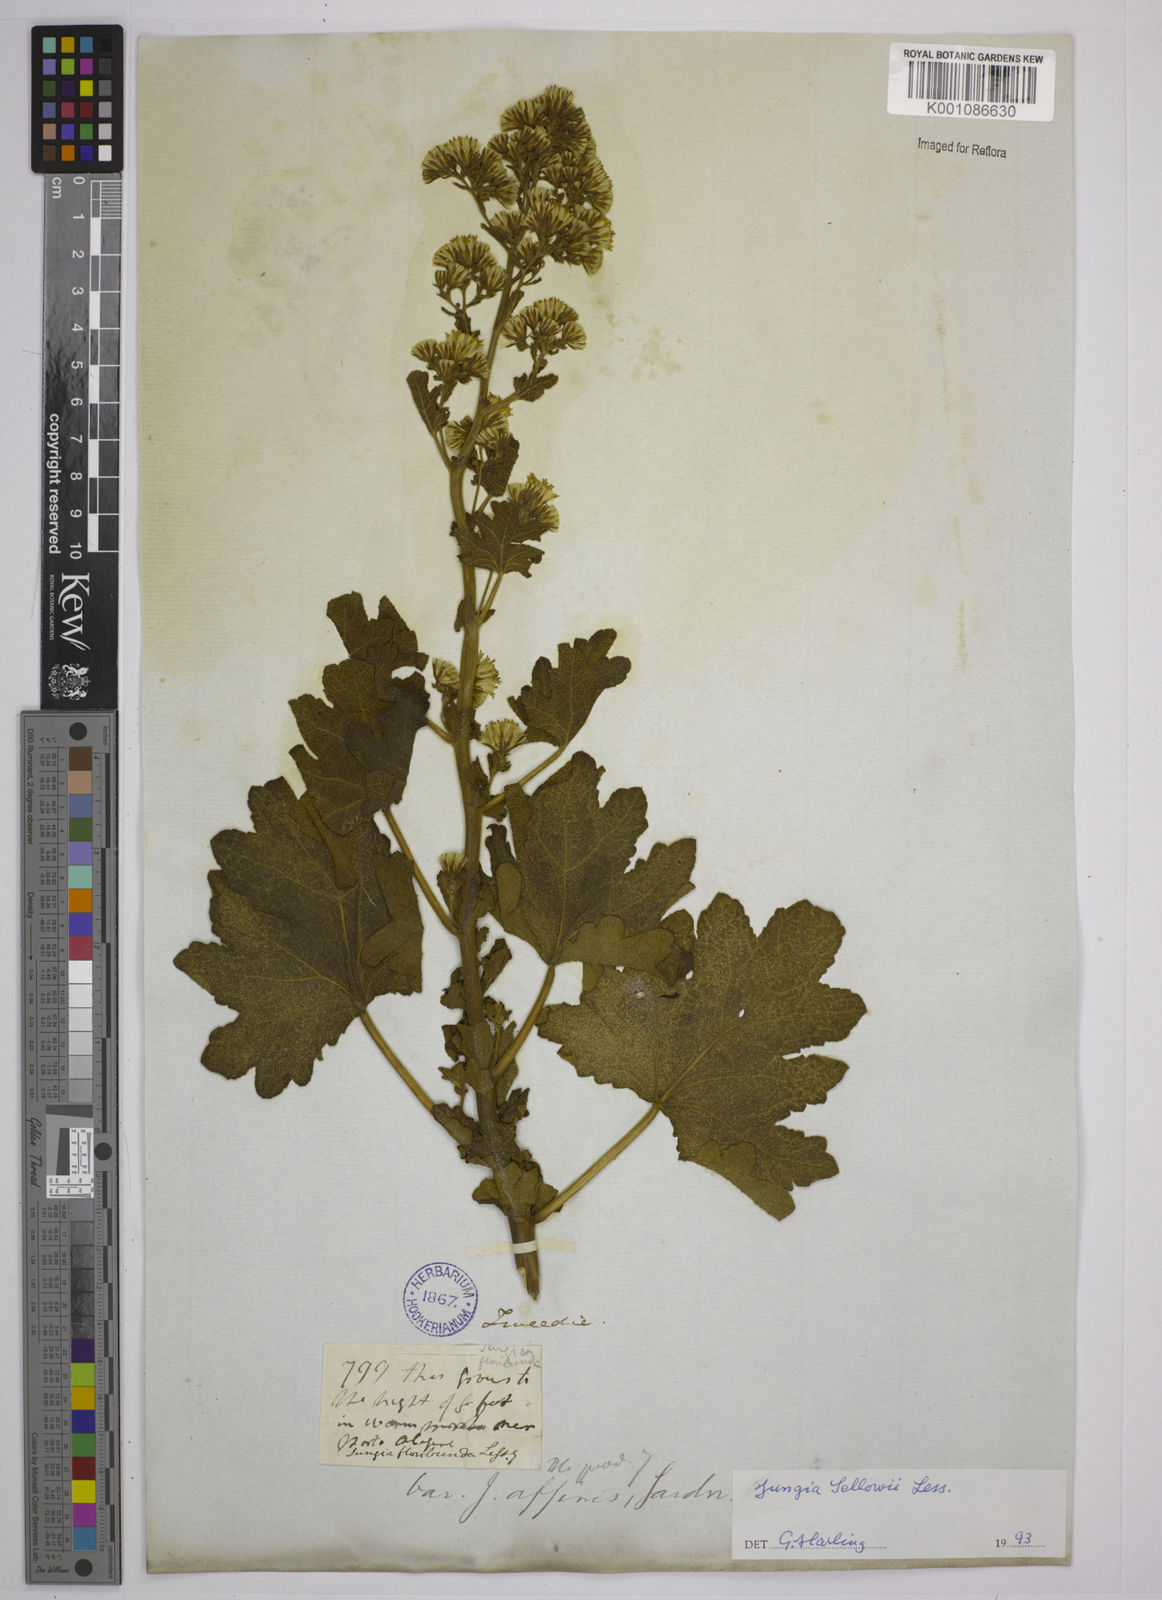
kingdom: Plantae
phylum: Tracheophyta
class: Magnoliopsida
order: Asterales
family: Asteraceae
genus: Jungia
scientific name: Jungia sellowii
